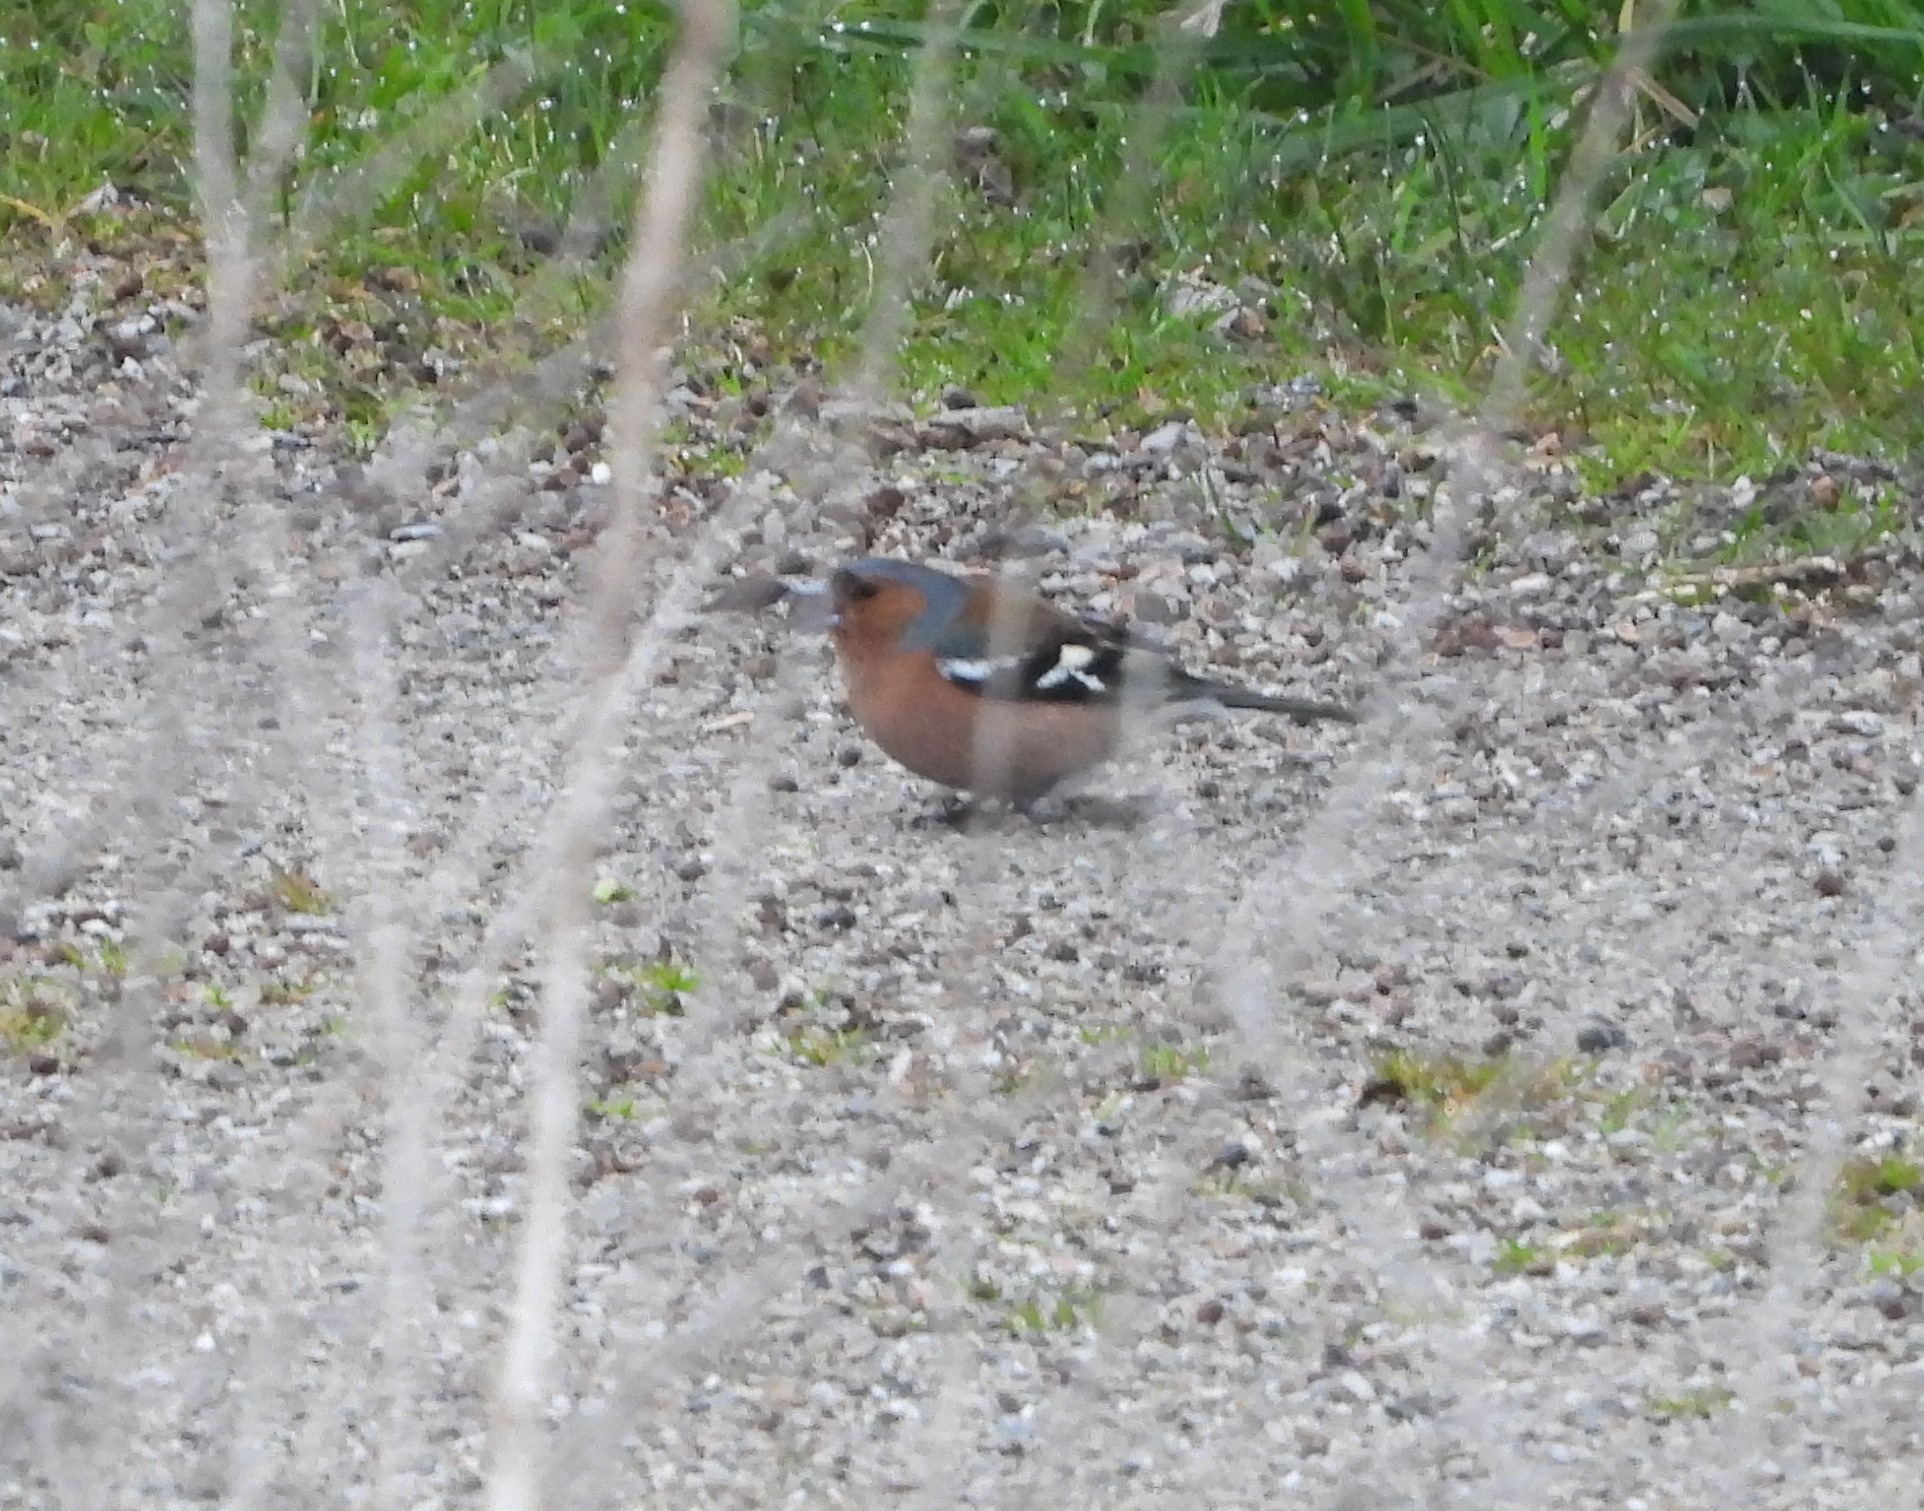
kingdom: Animalia
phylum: Chordata
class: Aves
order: Passeriformes
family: Fringillidae
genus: Fringilla
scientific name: Fringilla coelebs
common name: Bogfinke
